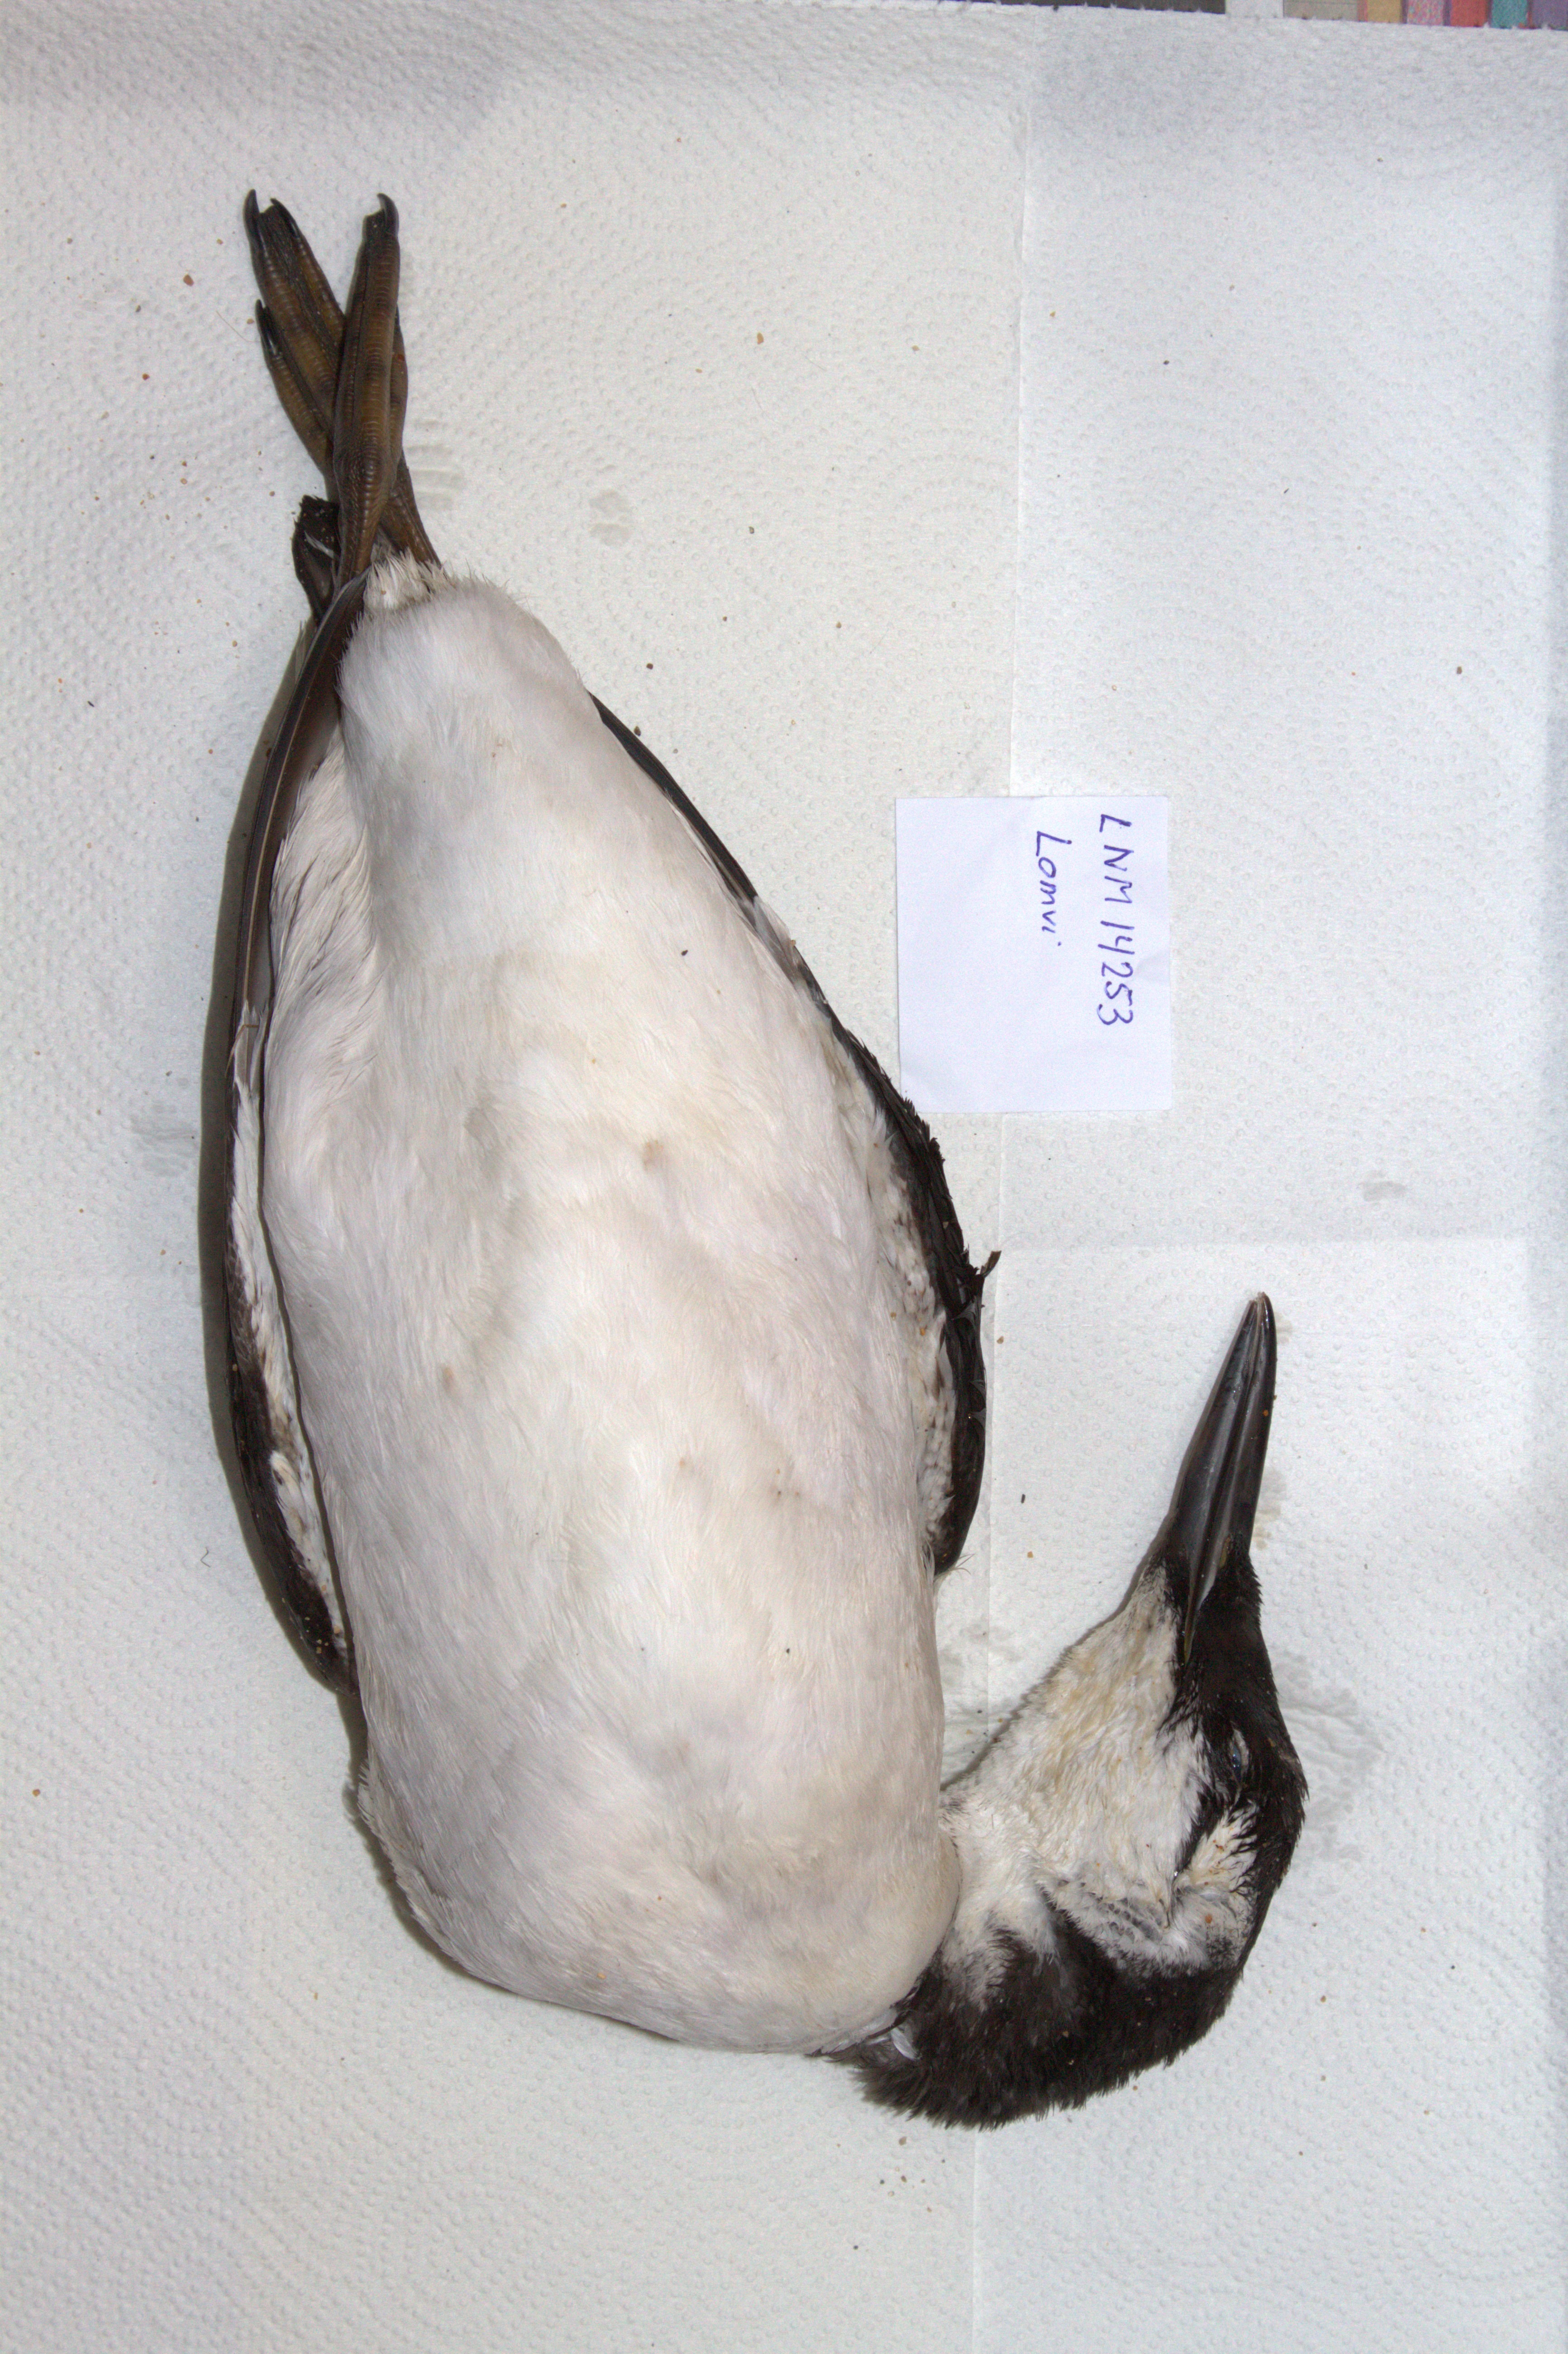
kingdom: Animalia
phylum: Chordata
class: Aves
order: Charadriiformes
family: Alcidae
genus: Uria
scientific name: Uria aalge
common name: Common murre
